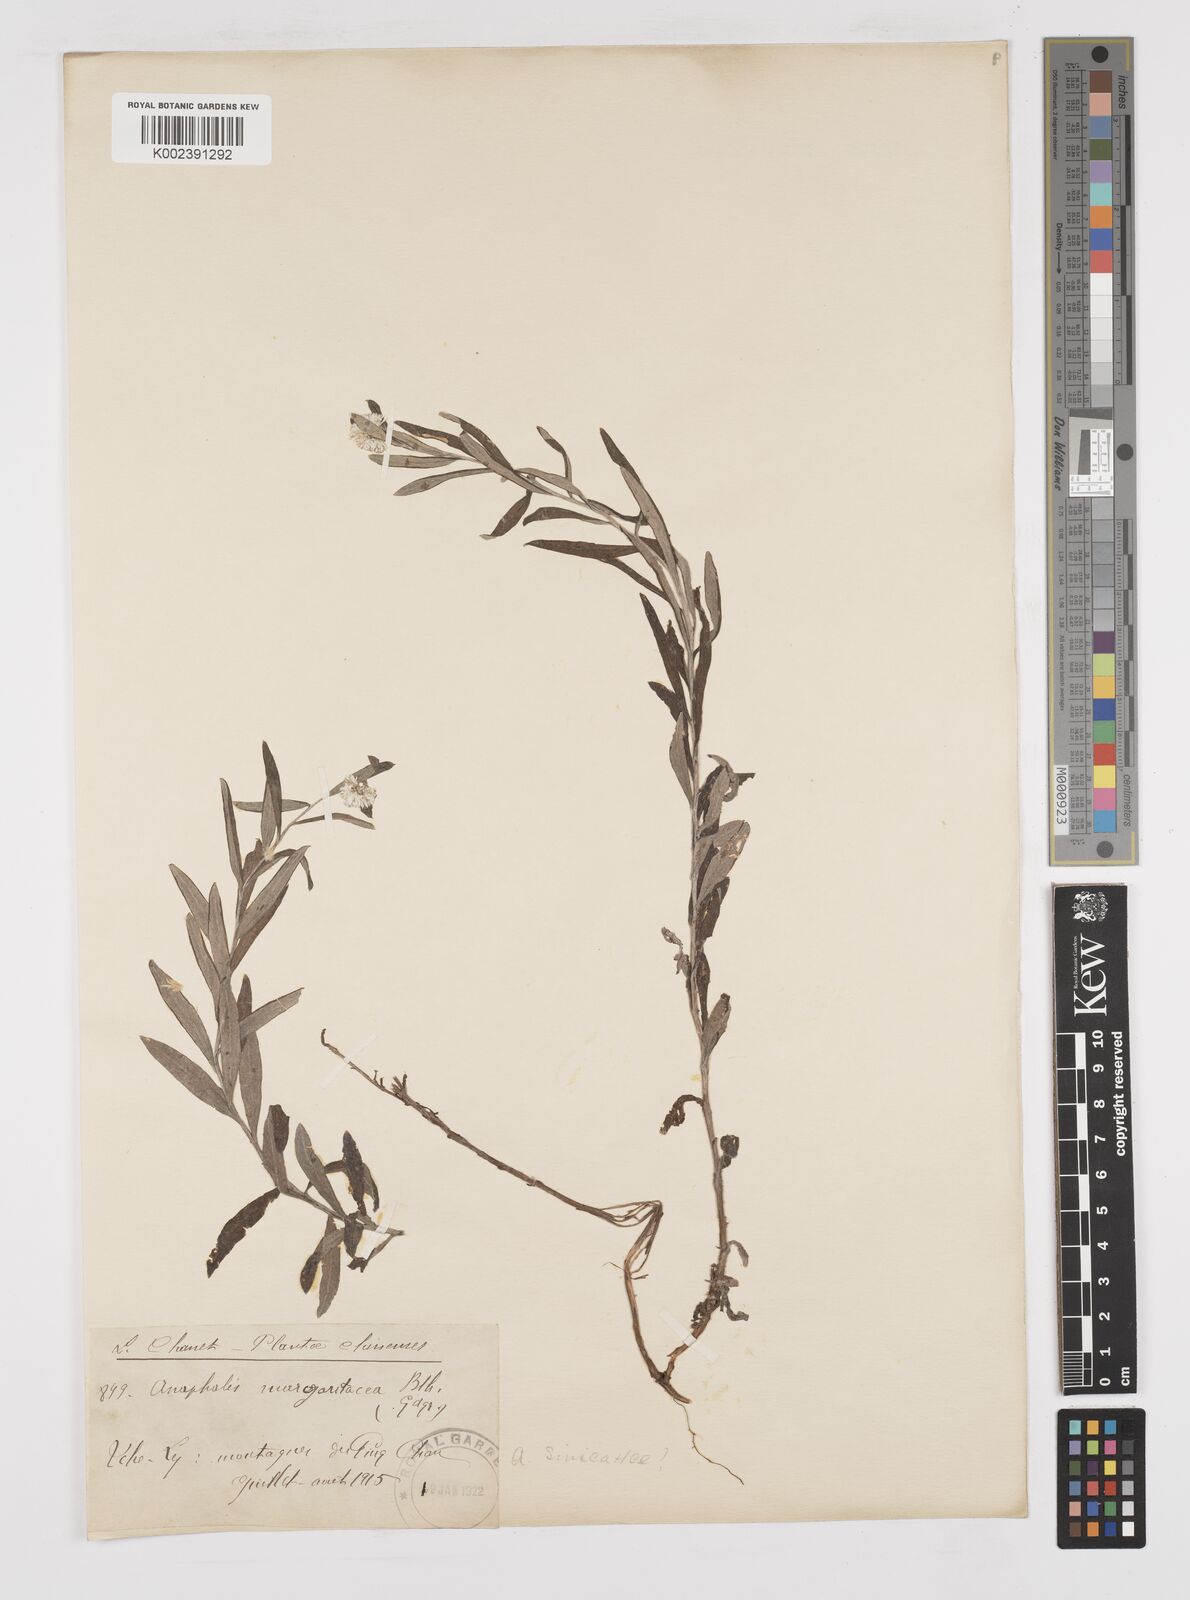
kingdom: Plantae
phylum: Tracheophyta
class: Magnoliopsida
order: Asterales
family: Asteraceae
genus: Anaphalis
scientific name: Anaphalis sinica
